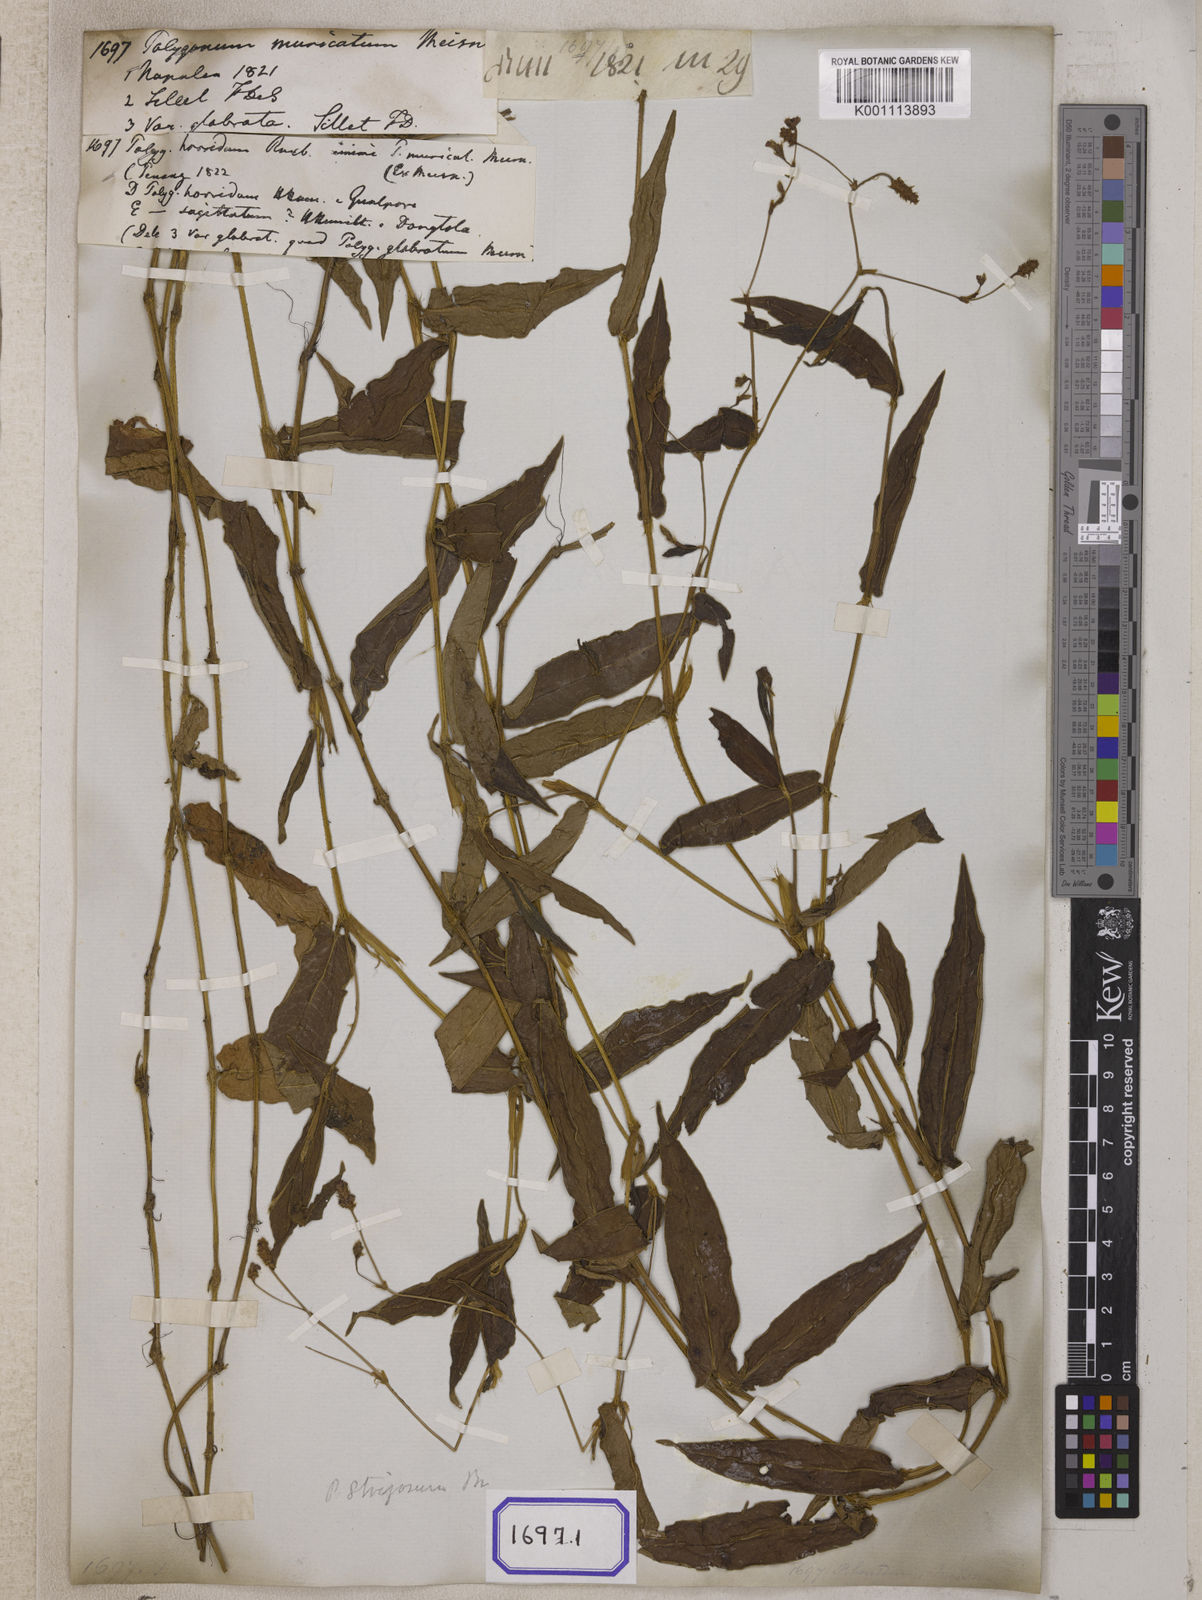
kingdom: Plantae
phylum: Tracheophyta
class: Magnoliopsida
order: Caryophyllales
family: Polygonaceae
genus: Persicaria
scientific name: Persicaria muricata
